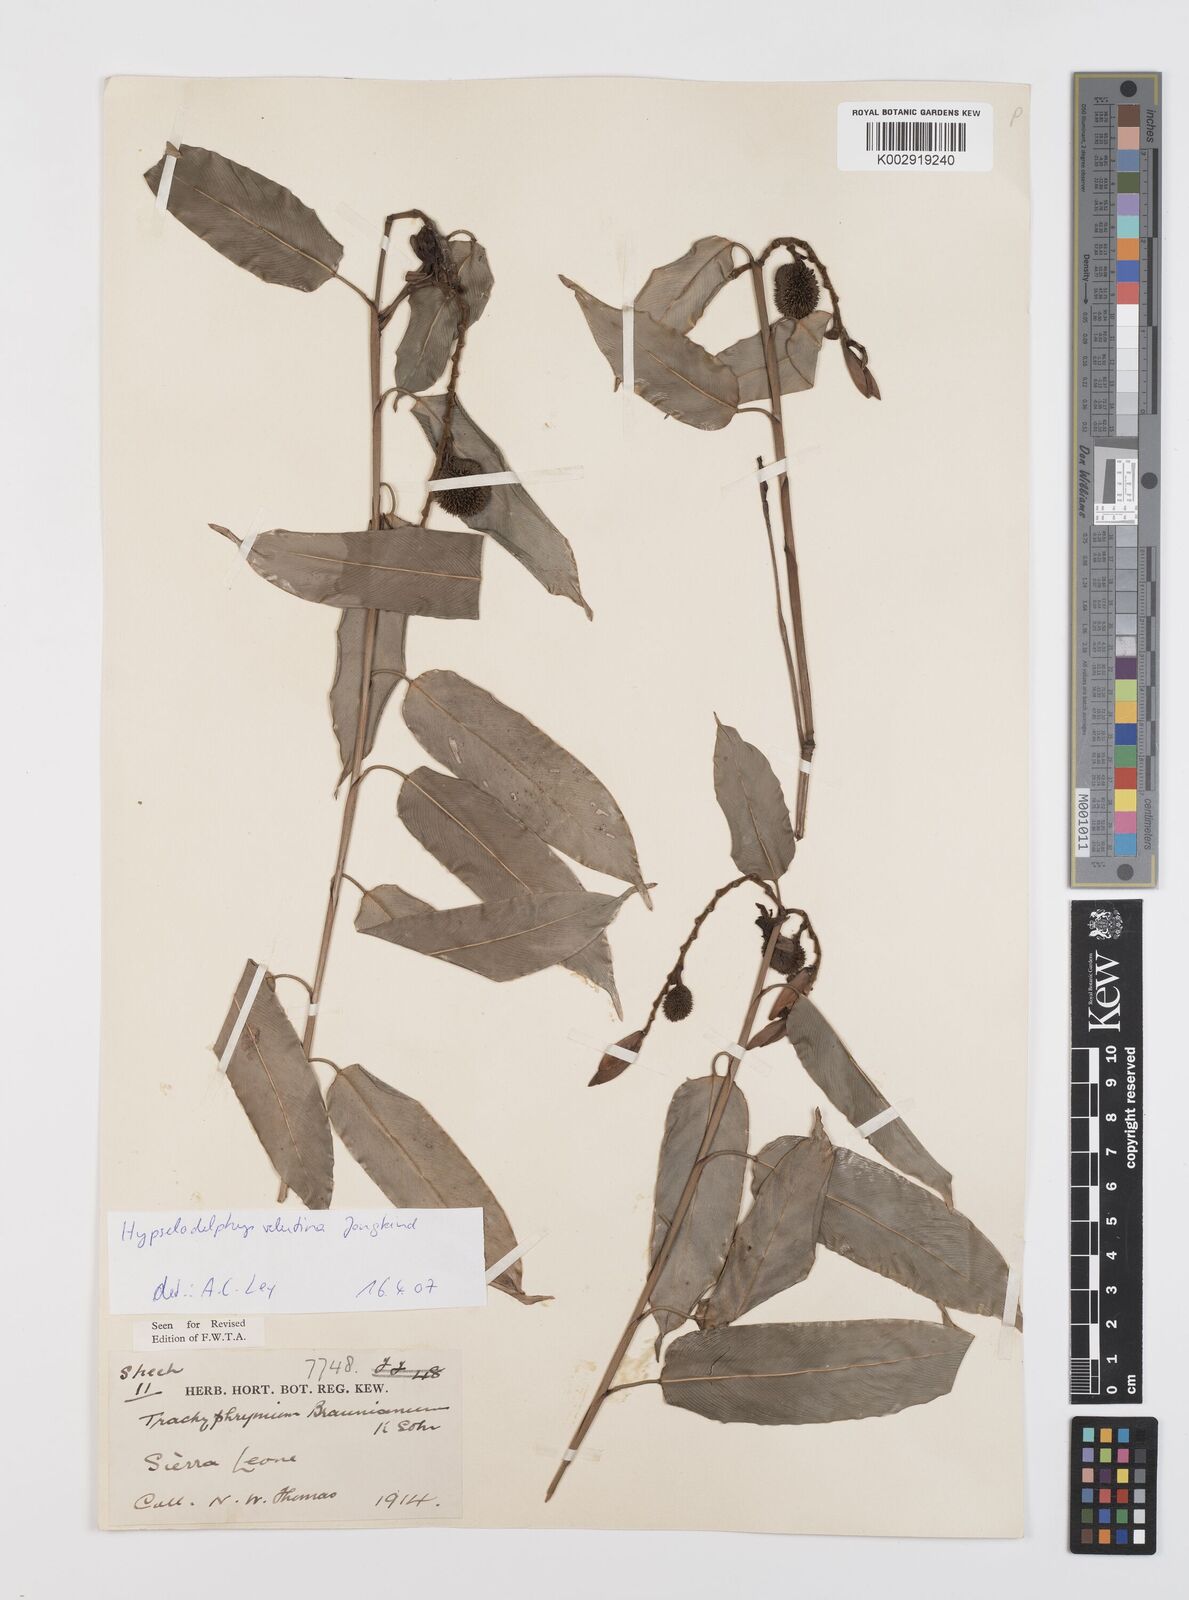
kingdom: Plantae
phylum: Tracheophyta
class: Liliopsida
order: Zingiberales
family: Marantaceae
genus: Hypselodelphys
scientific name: Hypselodelphys velutina
